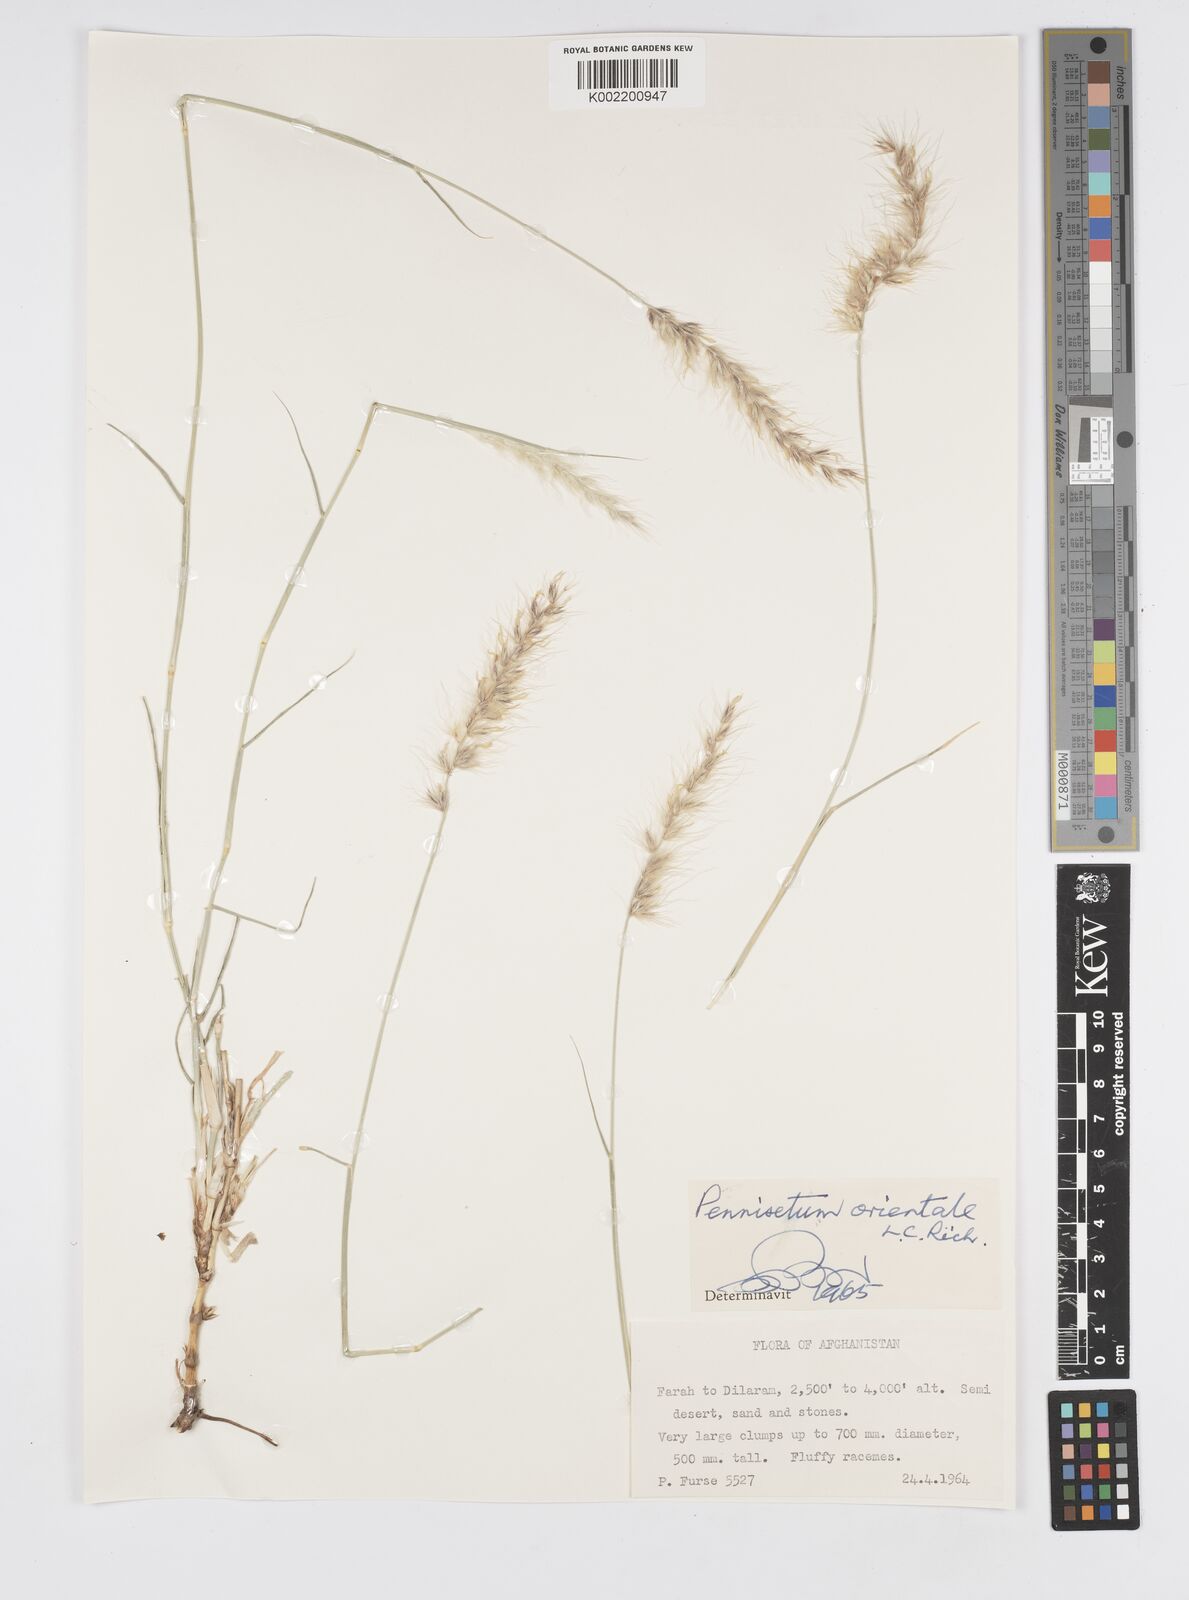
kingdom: Plantae
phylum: Tracheophyta
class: Liliopsida
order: Poales
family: Poaceae
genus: Cenchrus
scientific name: Cenchrus orientalis
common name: Oriental fountain grass
